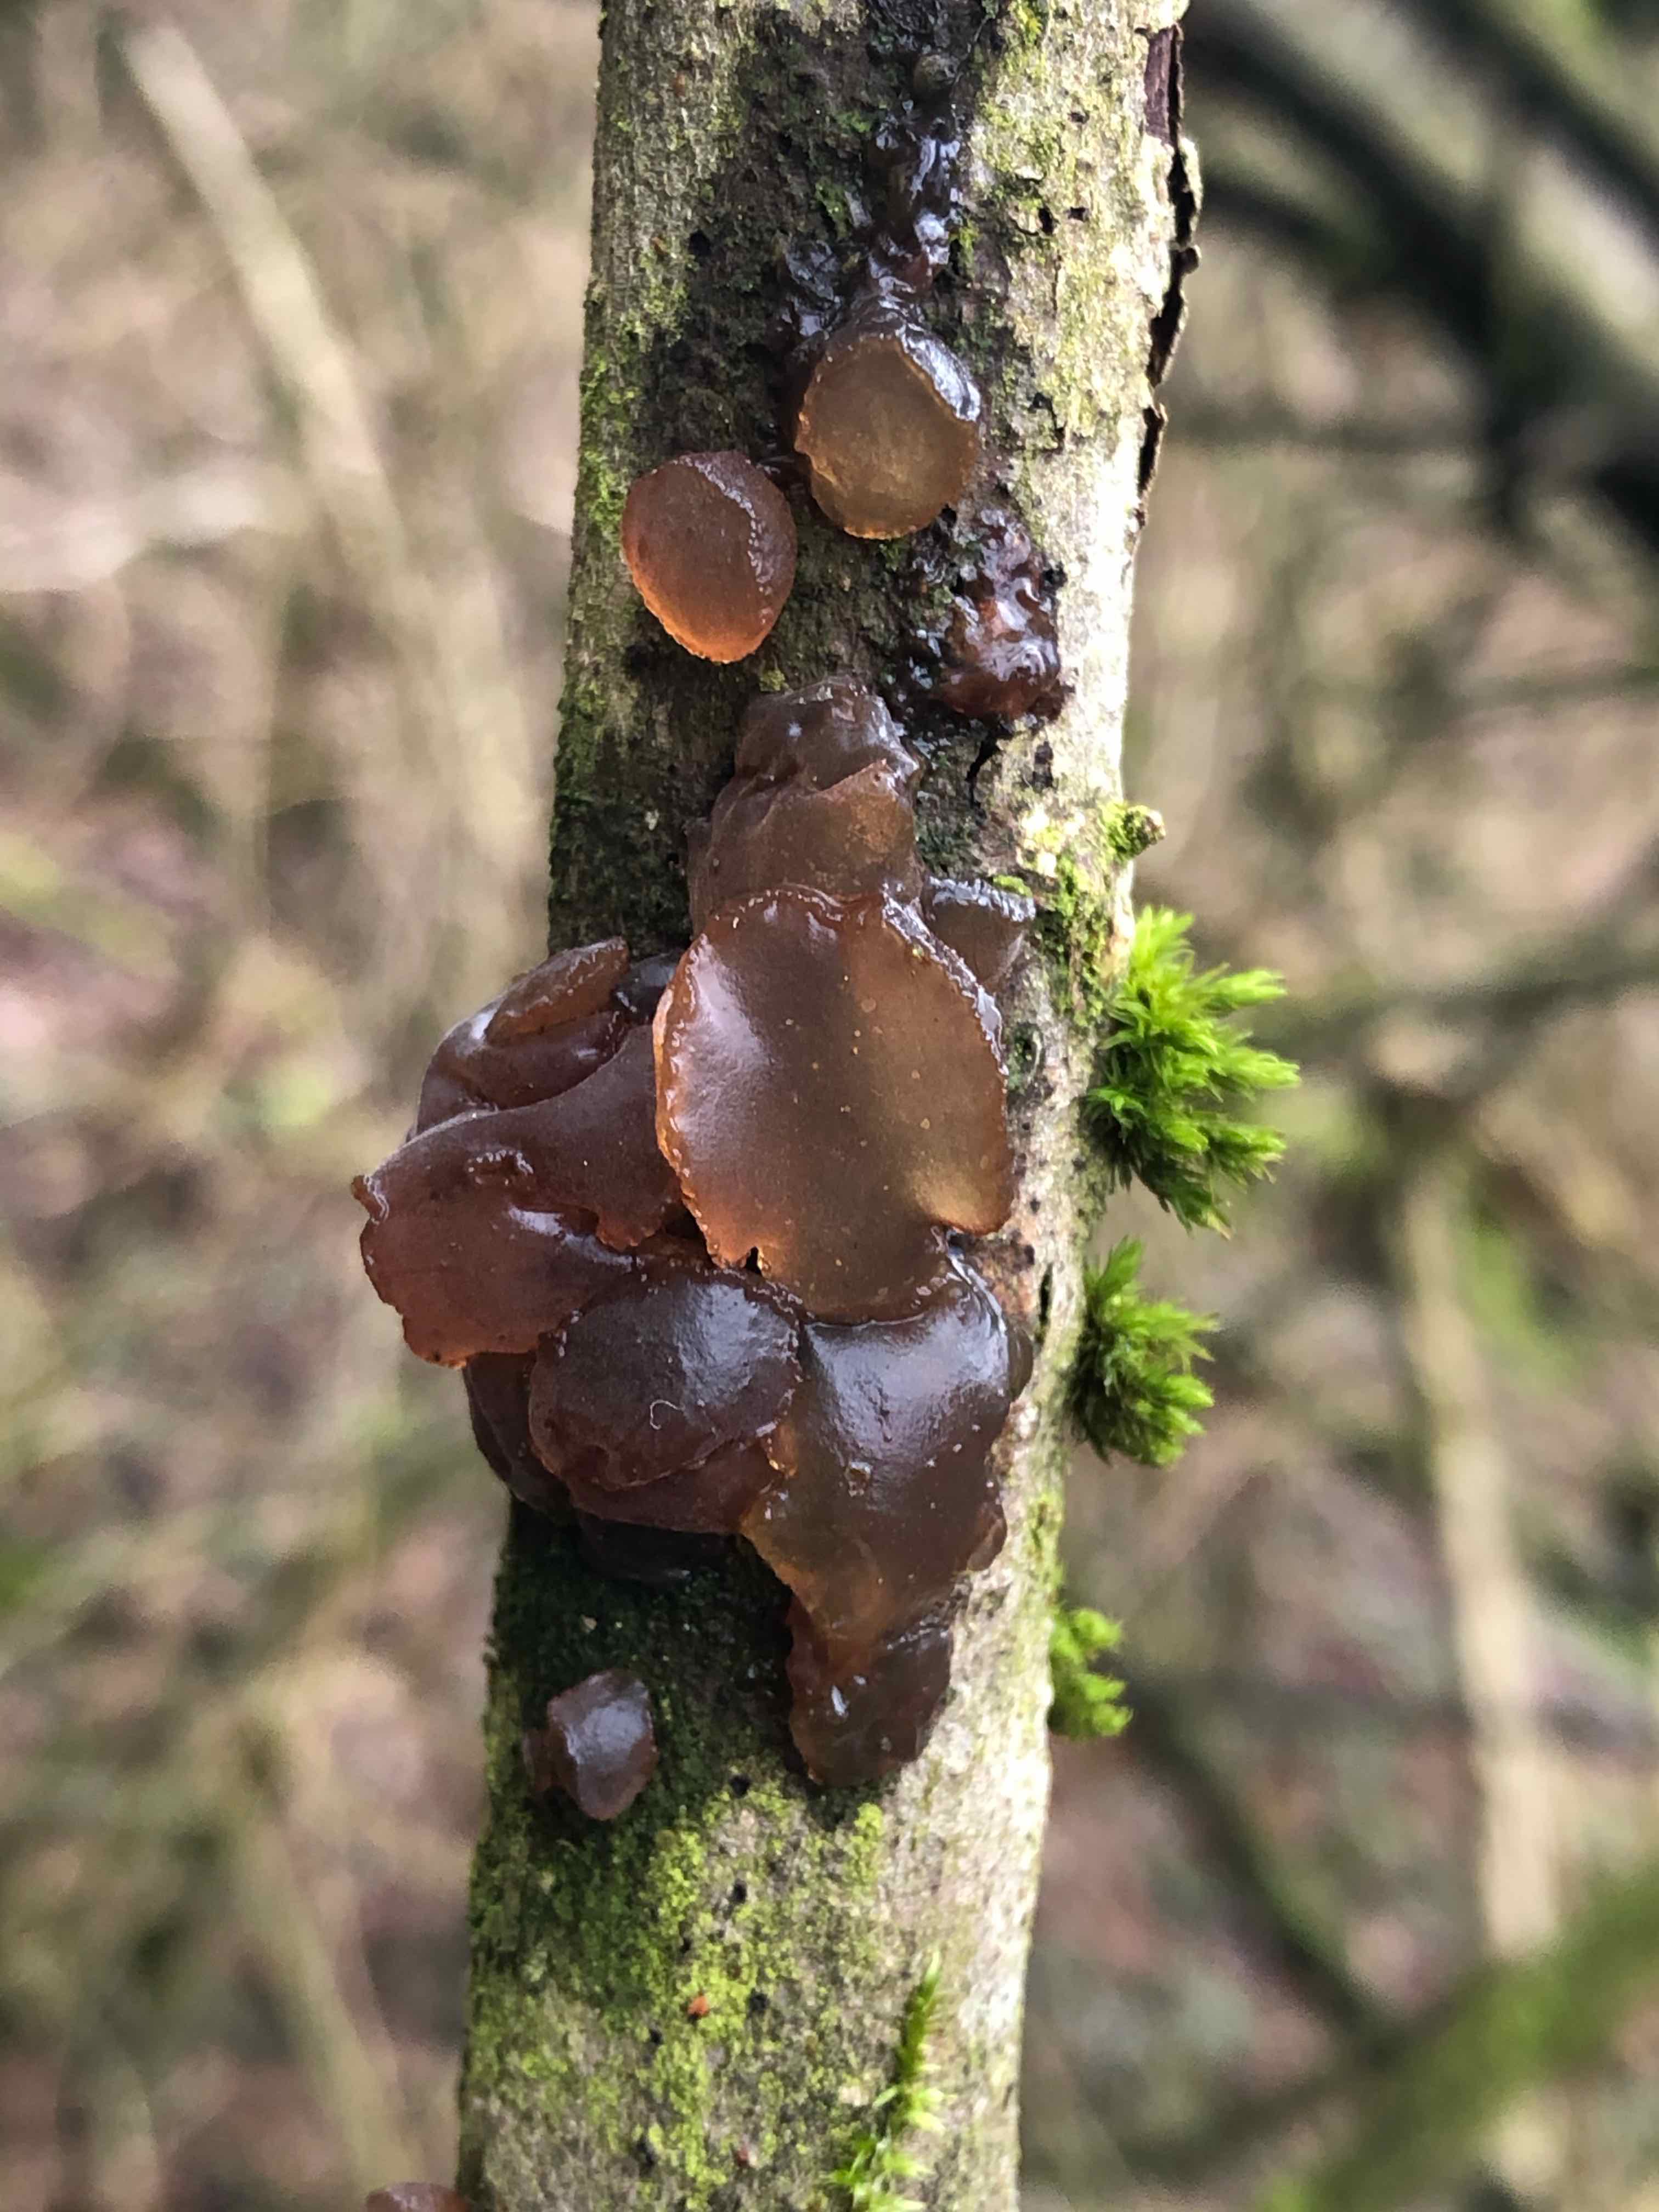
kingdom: Fungi
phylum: Basidiomycota
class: Agaricomycetes
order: Auriculariales
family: Auriculariaceae
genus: Exidia
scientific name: Exidia recisa
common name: pile-bævretop
